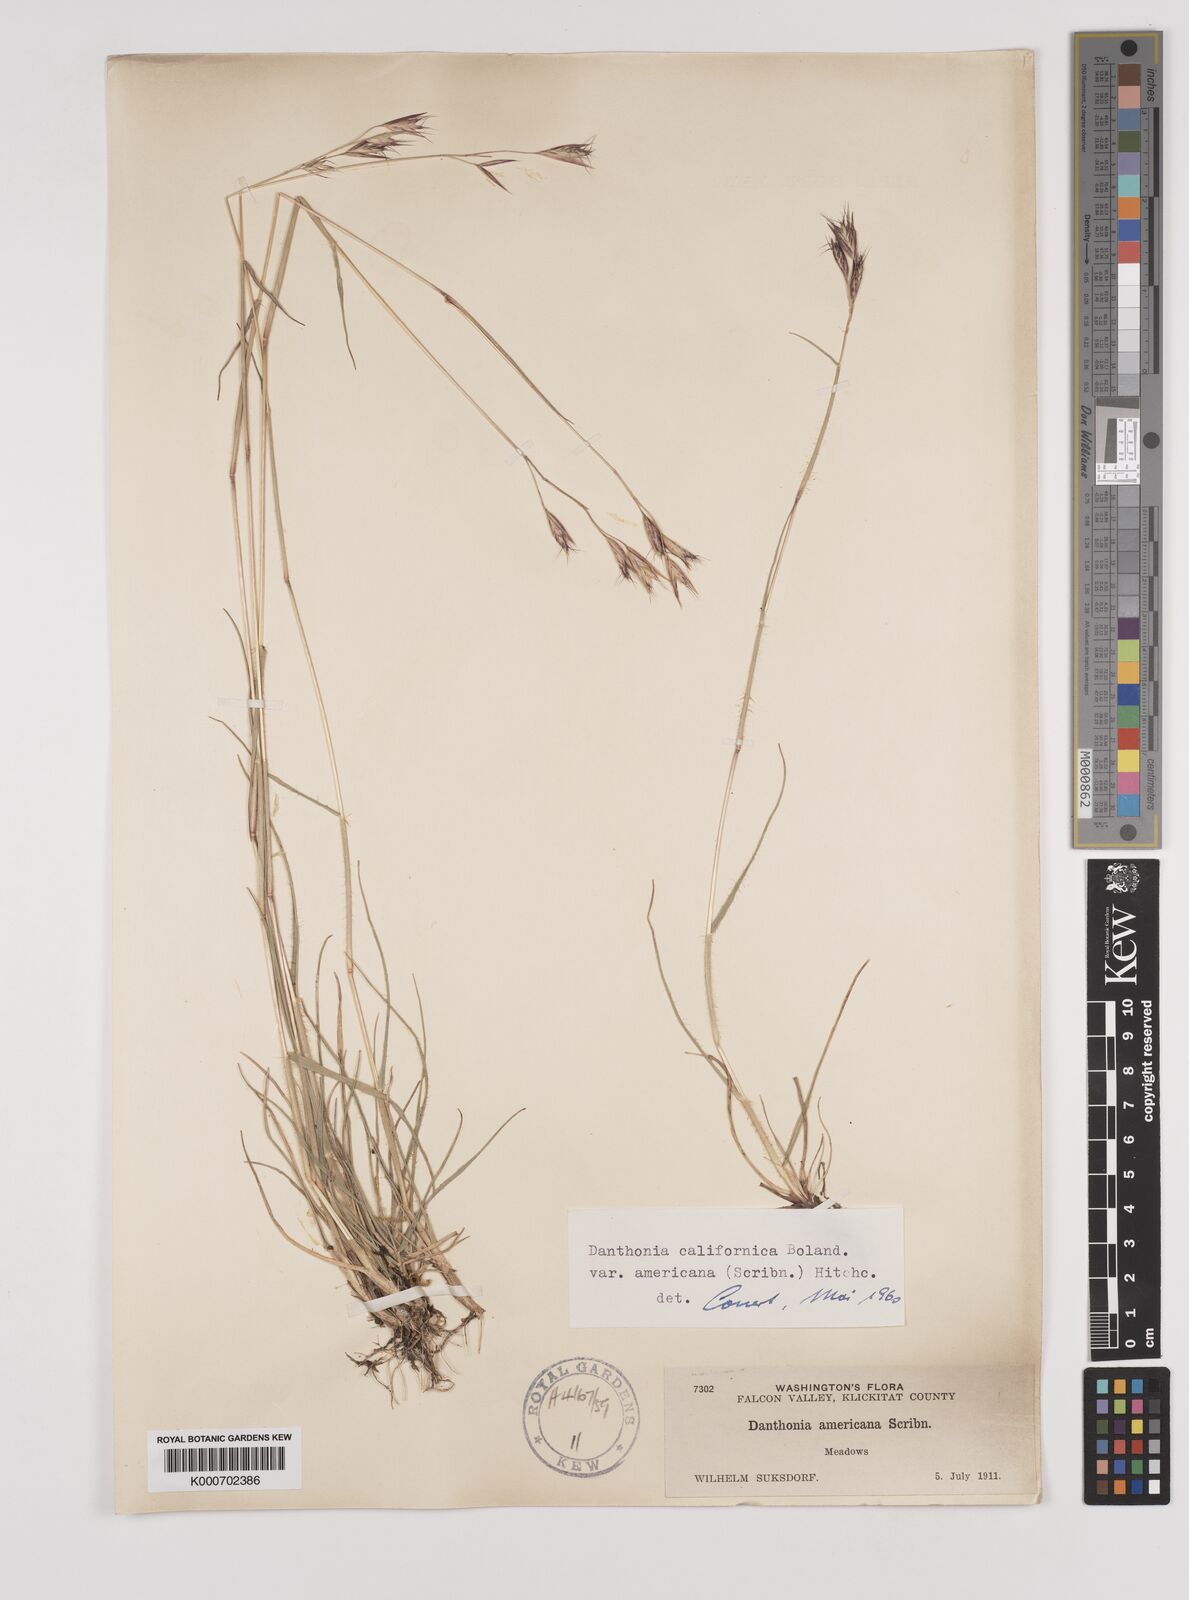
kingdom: Plantae
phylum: Tracheophyta
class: Liliopsida
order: Poales
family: Poaceae
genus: Danthonia
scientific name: Danthonia californica
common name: California oat grass
